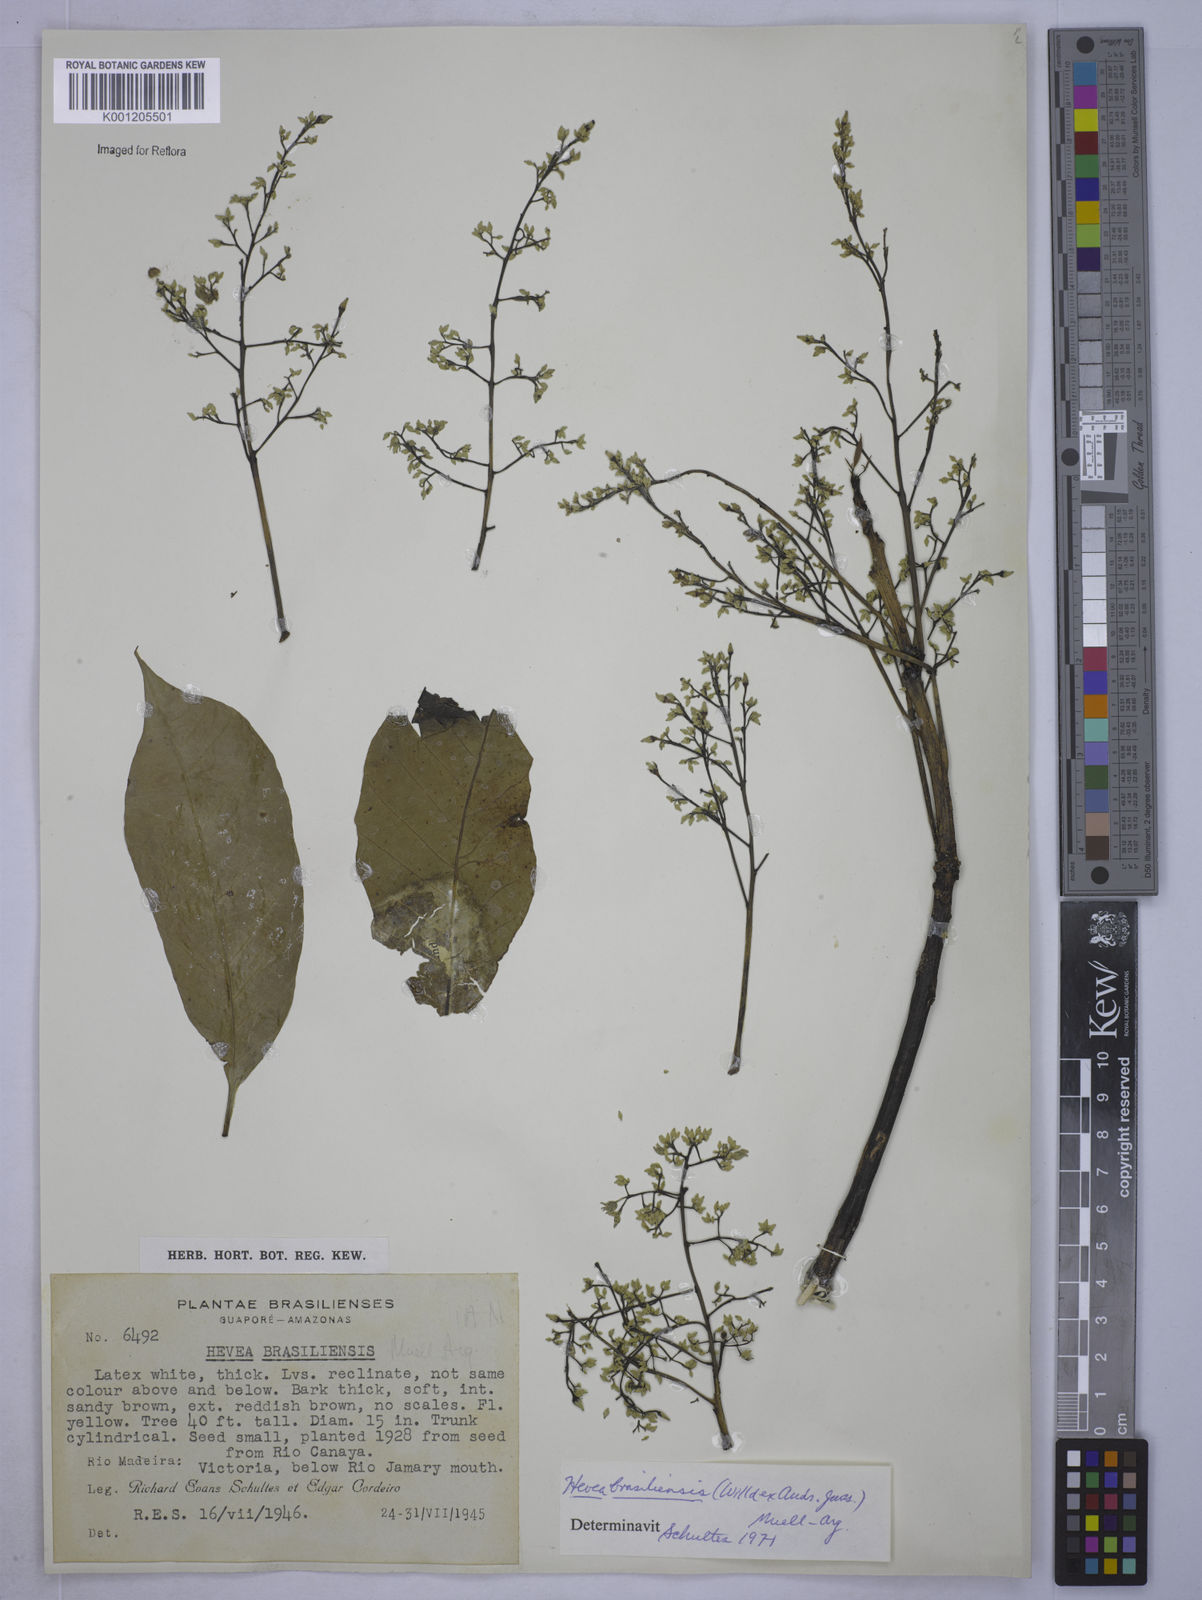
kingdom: Plantae
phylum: Tracheophyta
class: Magnoliopsida
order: Malpighiales
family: Euphorbiaceae
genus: Hevea
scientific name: Hevea
